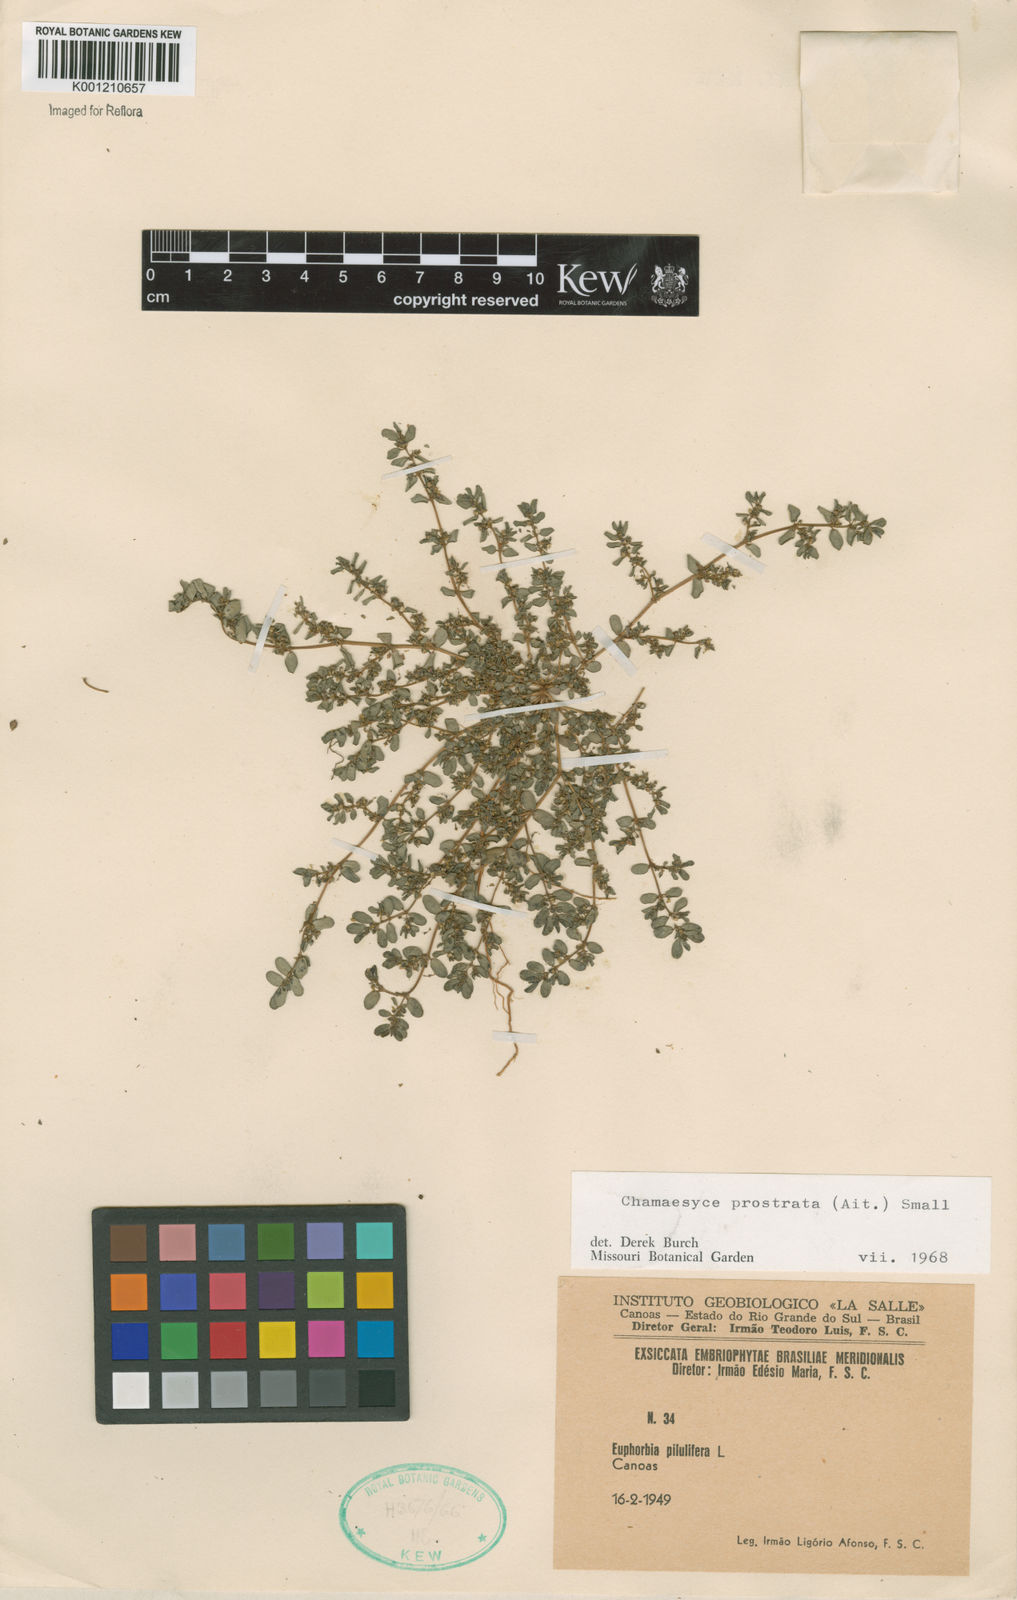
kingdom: Plantae
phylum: Tracheophyta
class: Magnoliopsida
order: Malpighiales
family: Euphorbiaceae
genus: Euphorbia
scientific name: Euphorbia prostrata
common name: Prostrate sandmat
